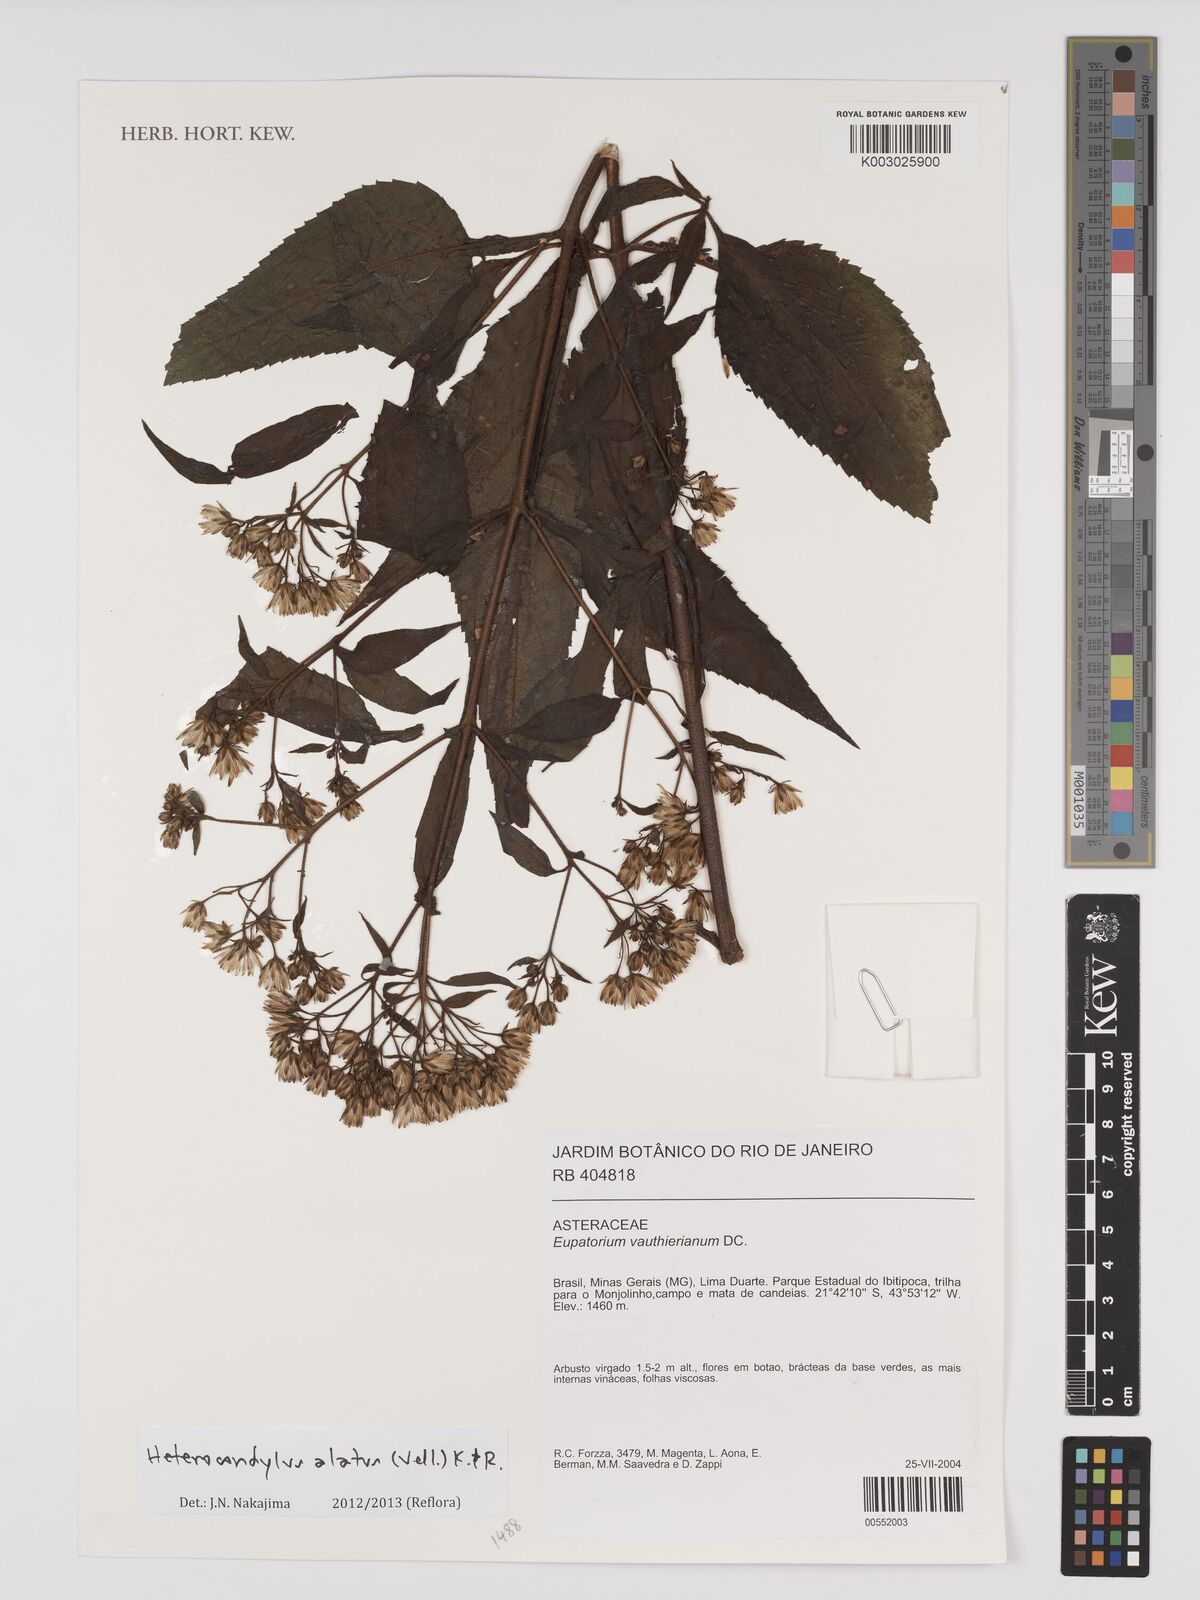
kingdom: Plantae
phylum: Tracheophyta
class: Magnoliopsida
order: Asterales
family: Asteraceae
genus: Heterocondylus
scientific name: Heterocondylus alatus
